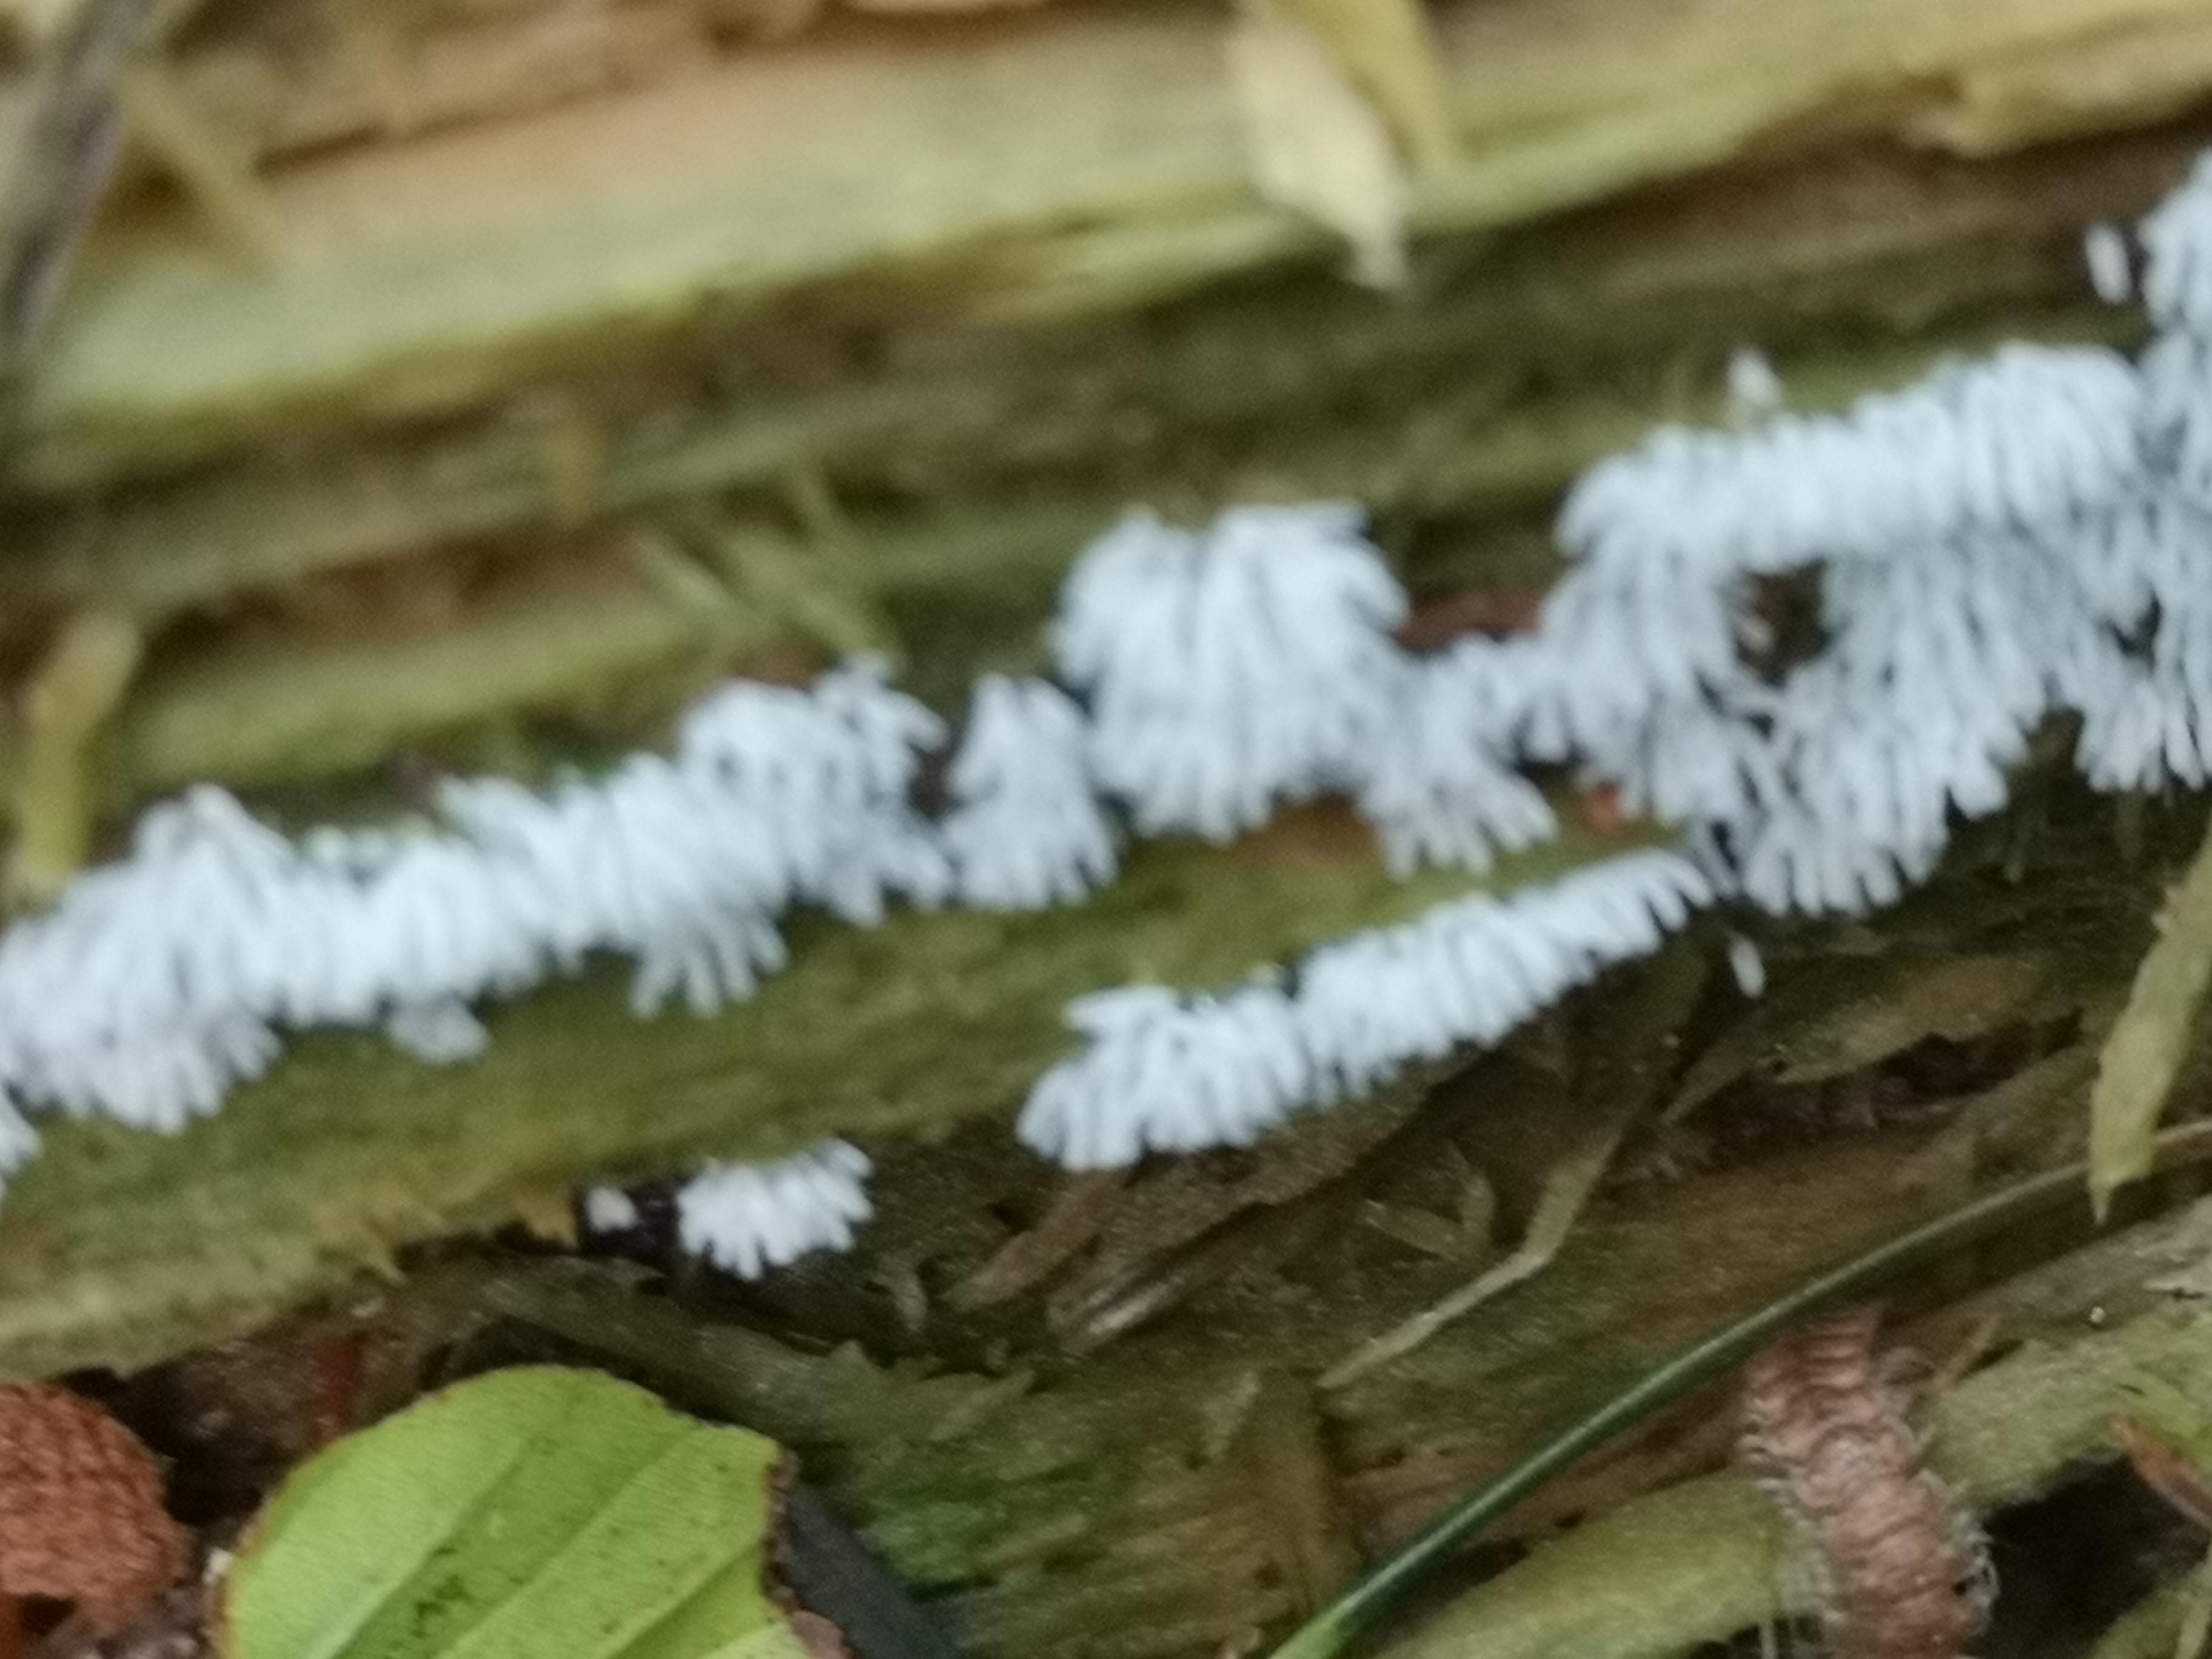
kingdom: Protozoa
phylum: Mycetozoa
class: Protosteliomycetes
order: Ceratiomyxales
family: Ceratiomyxaceae
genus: Ceratiomyxa
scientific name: Ceratiomyxa fruticulosa
